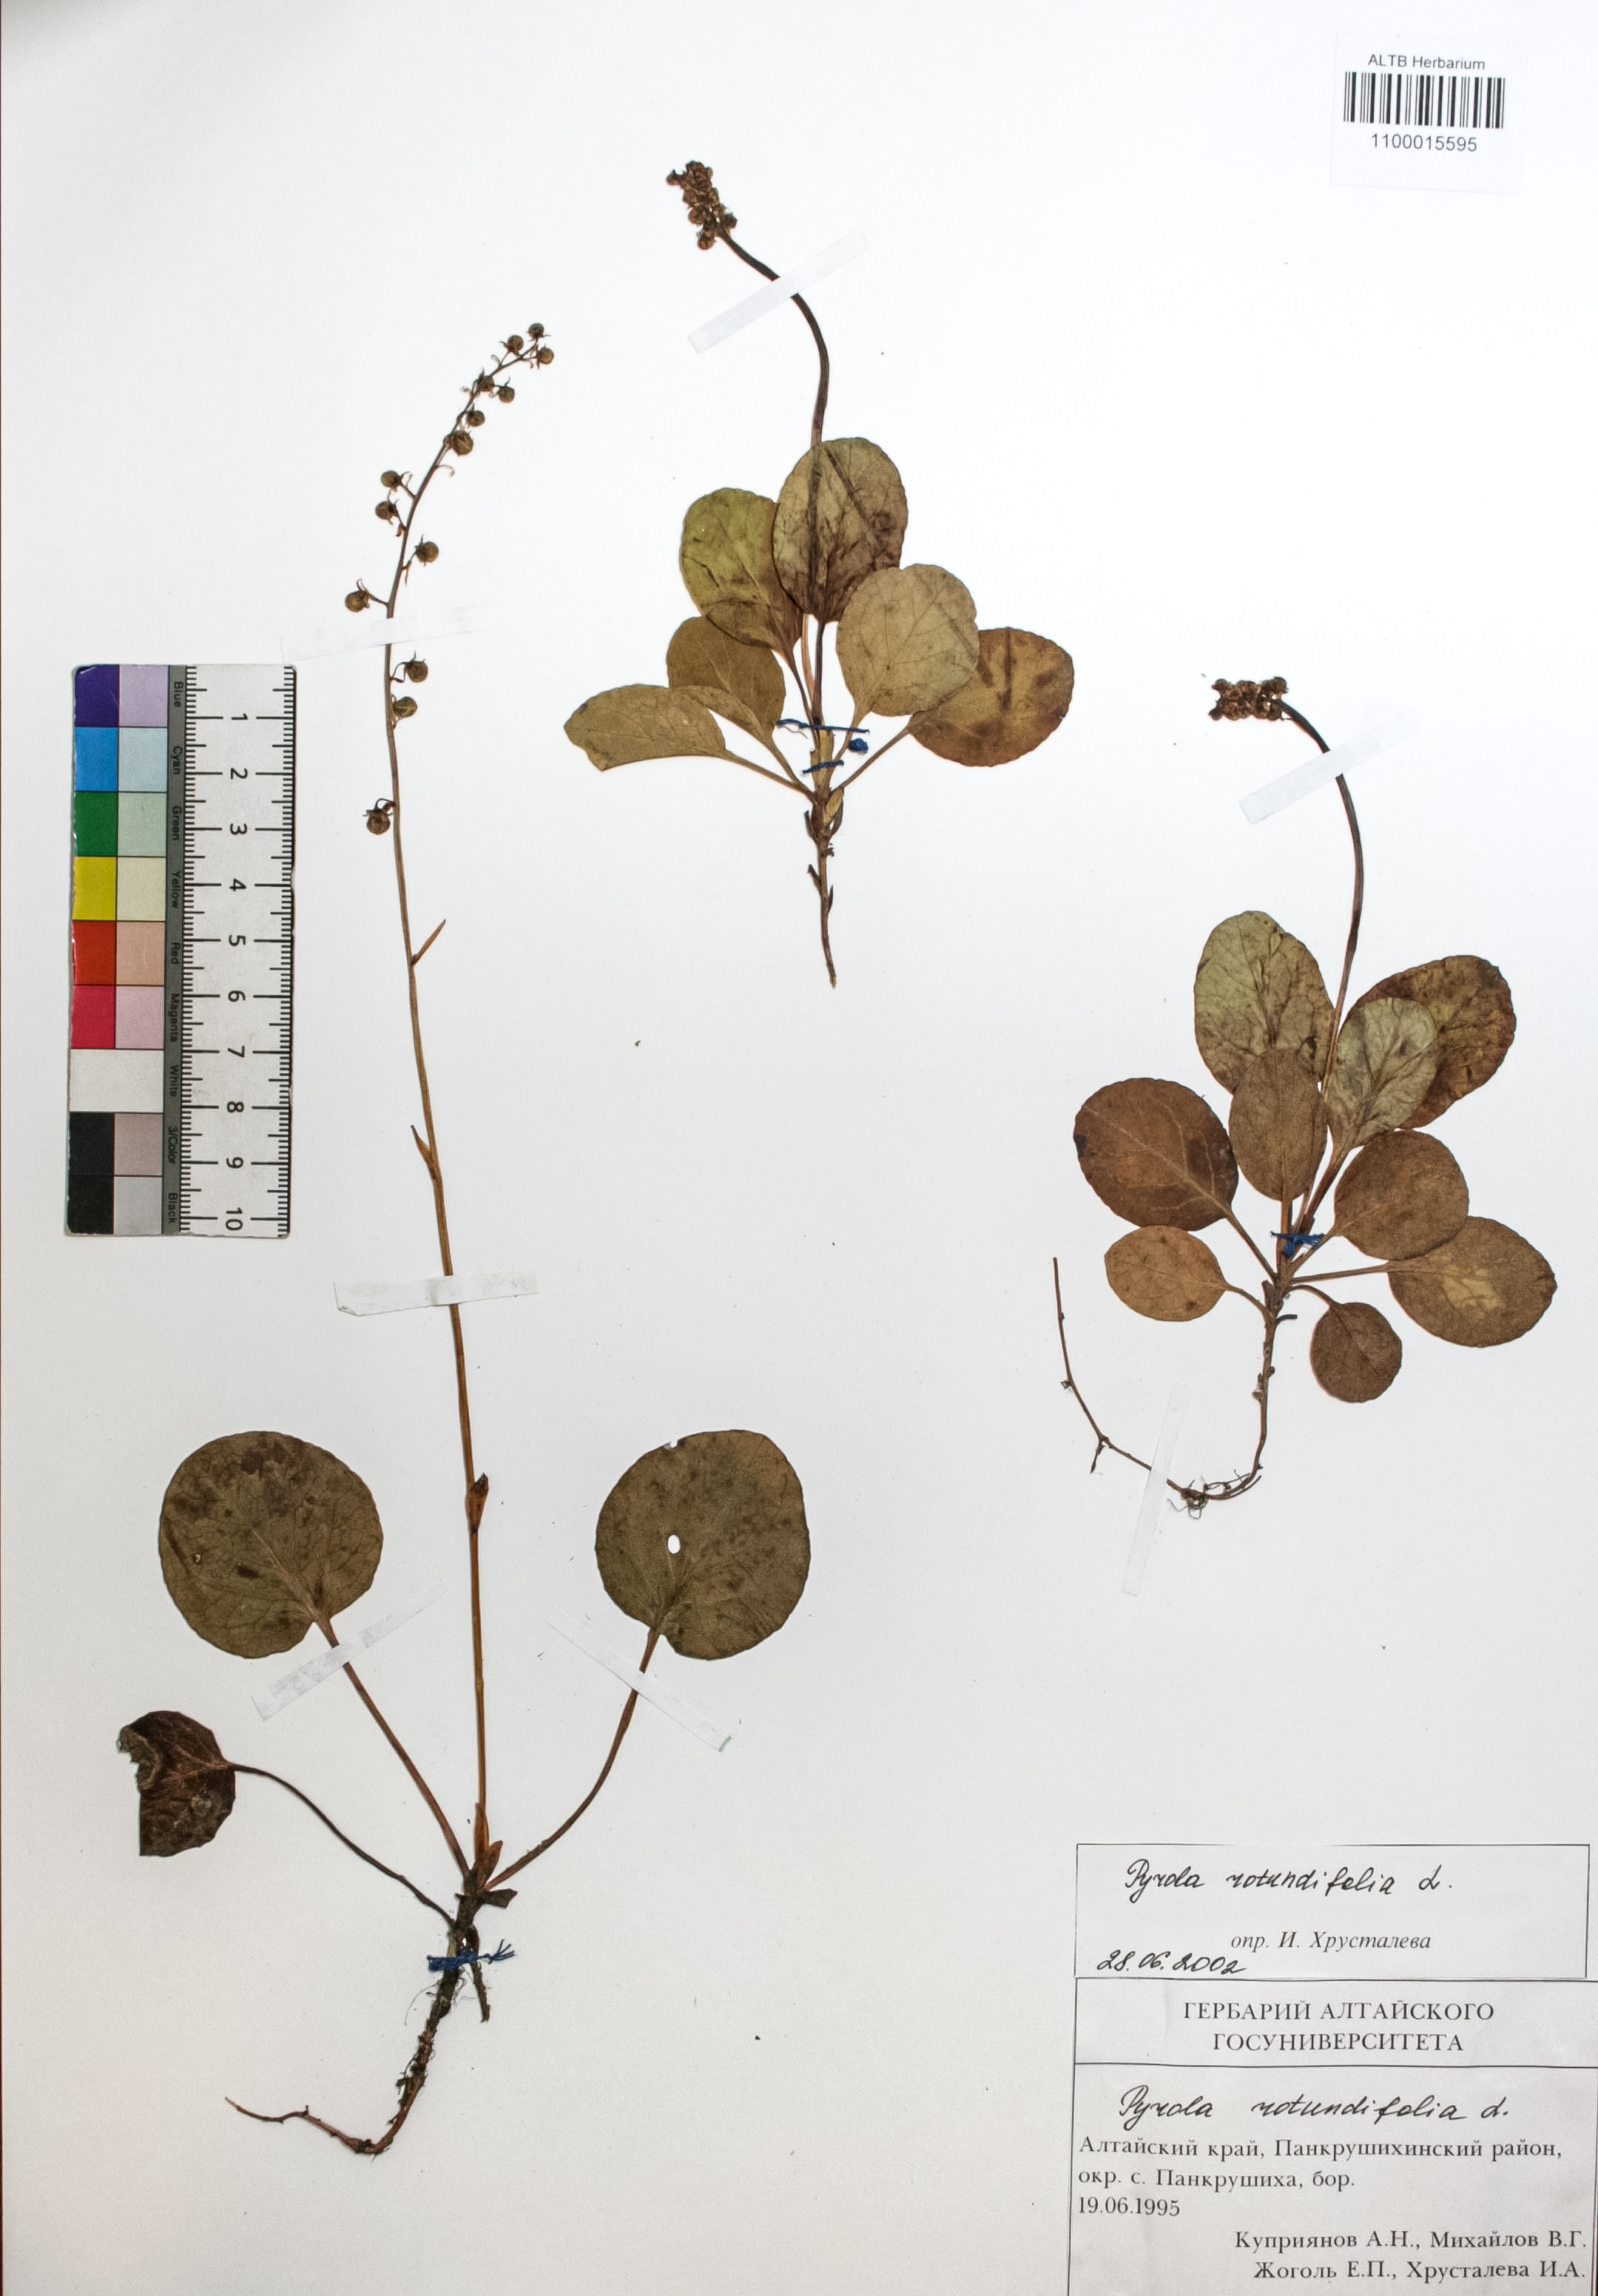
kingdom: Plantae
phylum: Tracheophyta
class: Magnoliopsida
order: Ericales
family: Ericaceae
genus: Pyrola
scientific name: Pyrola rotundifolia
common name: Round-leaved wintergreen
